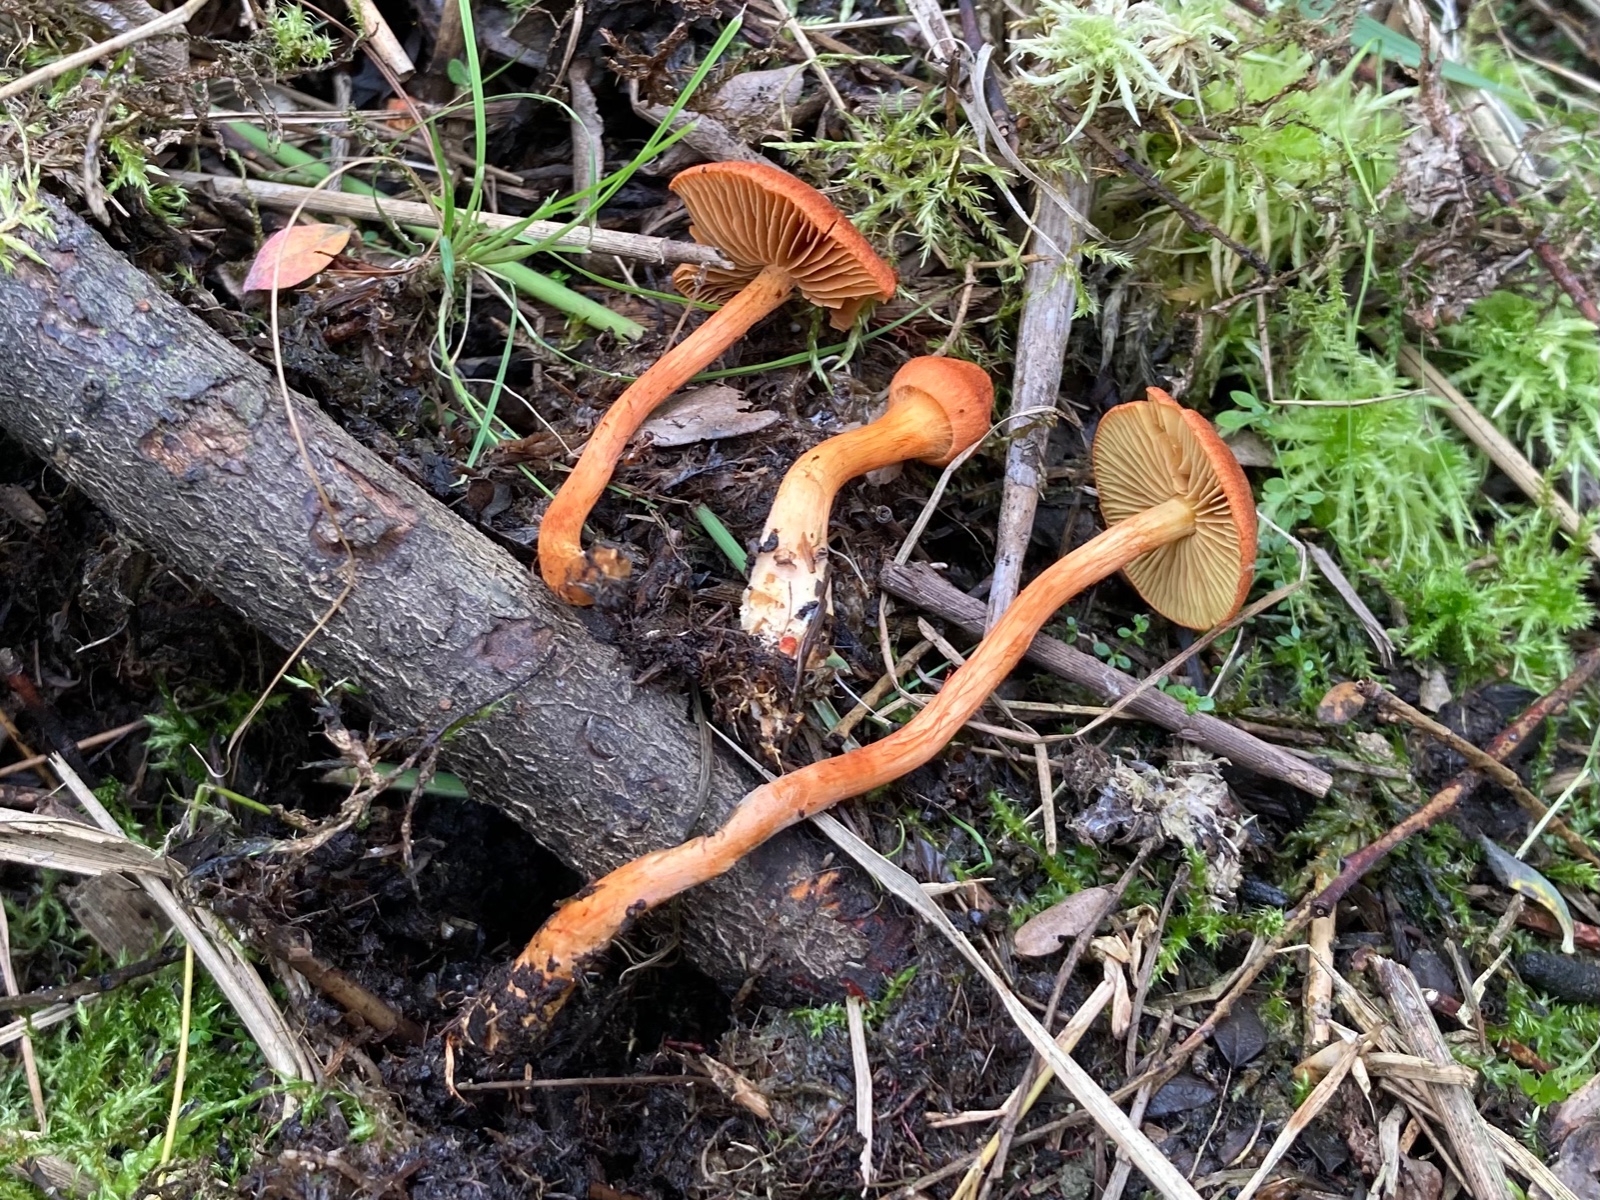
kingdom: Fungi
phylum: Basidiomycota
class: Agaricomycetes
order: Agaricales
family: Cortinariaceae
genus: Cortinarius
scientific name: Cortinarius uliginosus
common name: mose-slørhat
